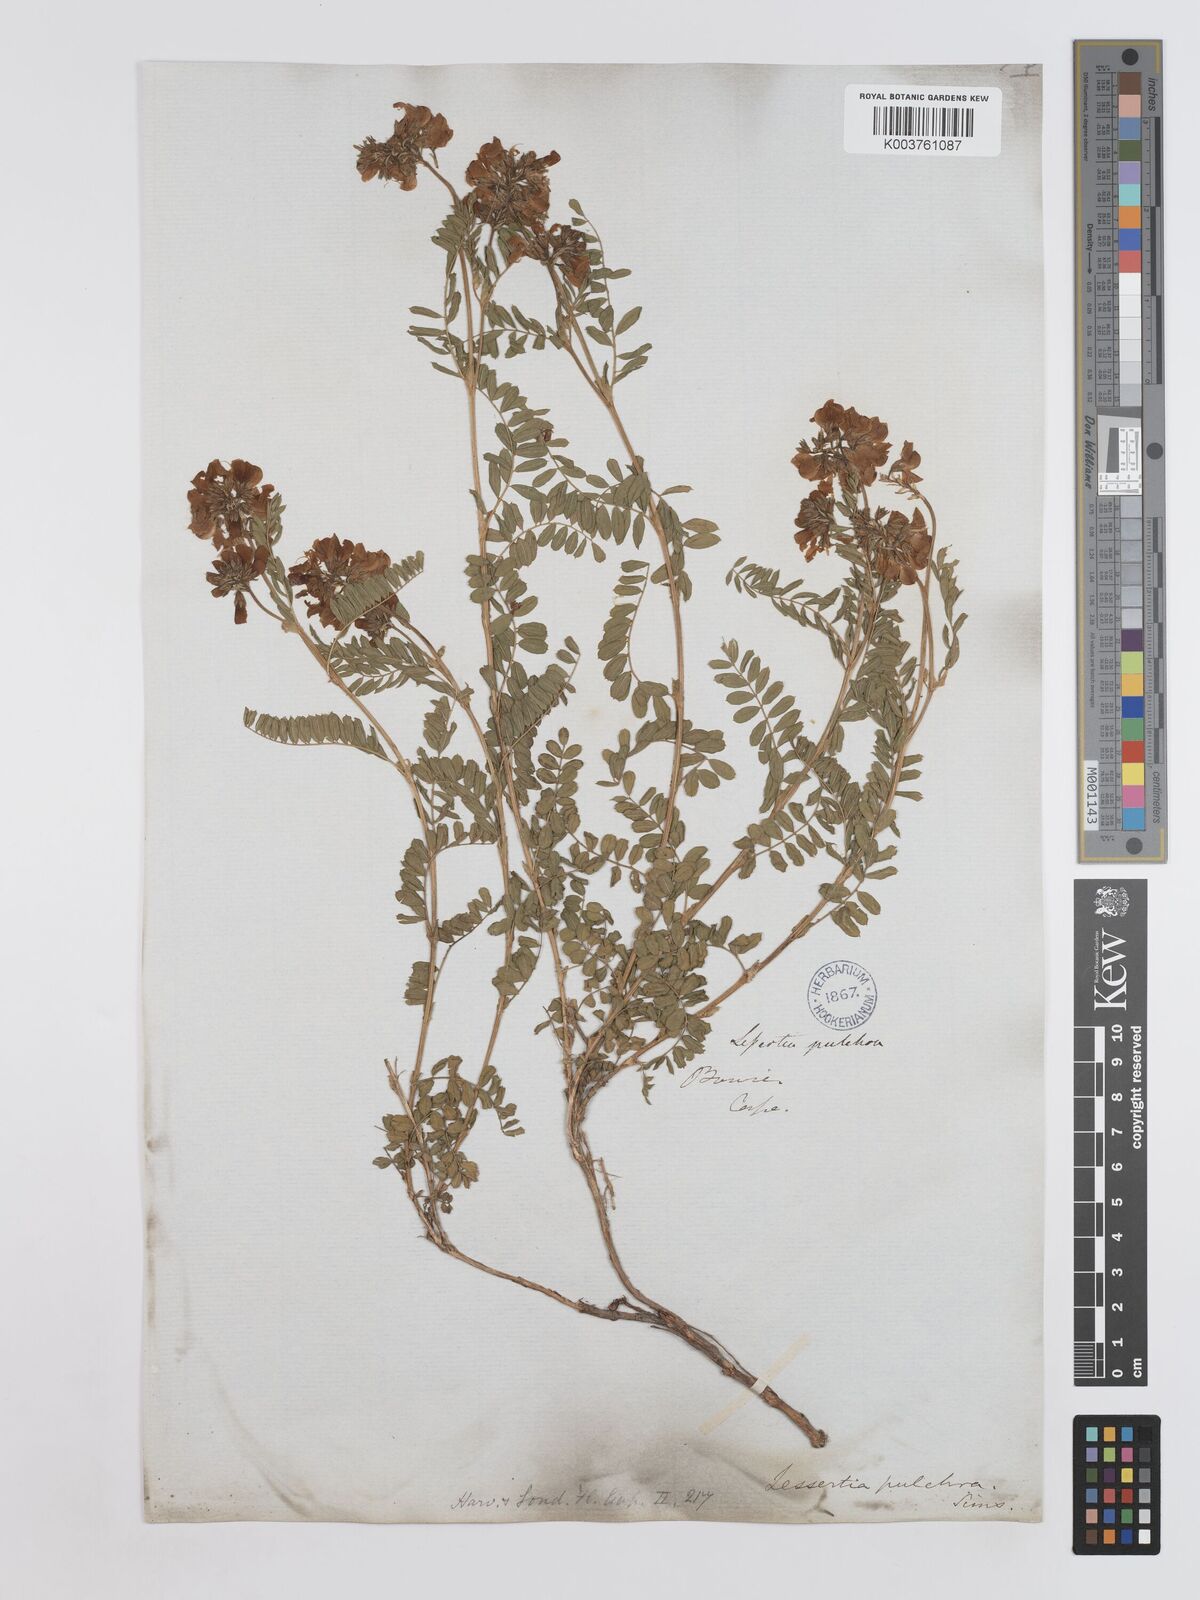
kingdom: Plantae
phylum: Tracheophyta
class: Magnoliopsida
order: Fabales
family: Fabaceae
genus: Lessertia
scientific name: Lessertia capensis
